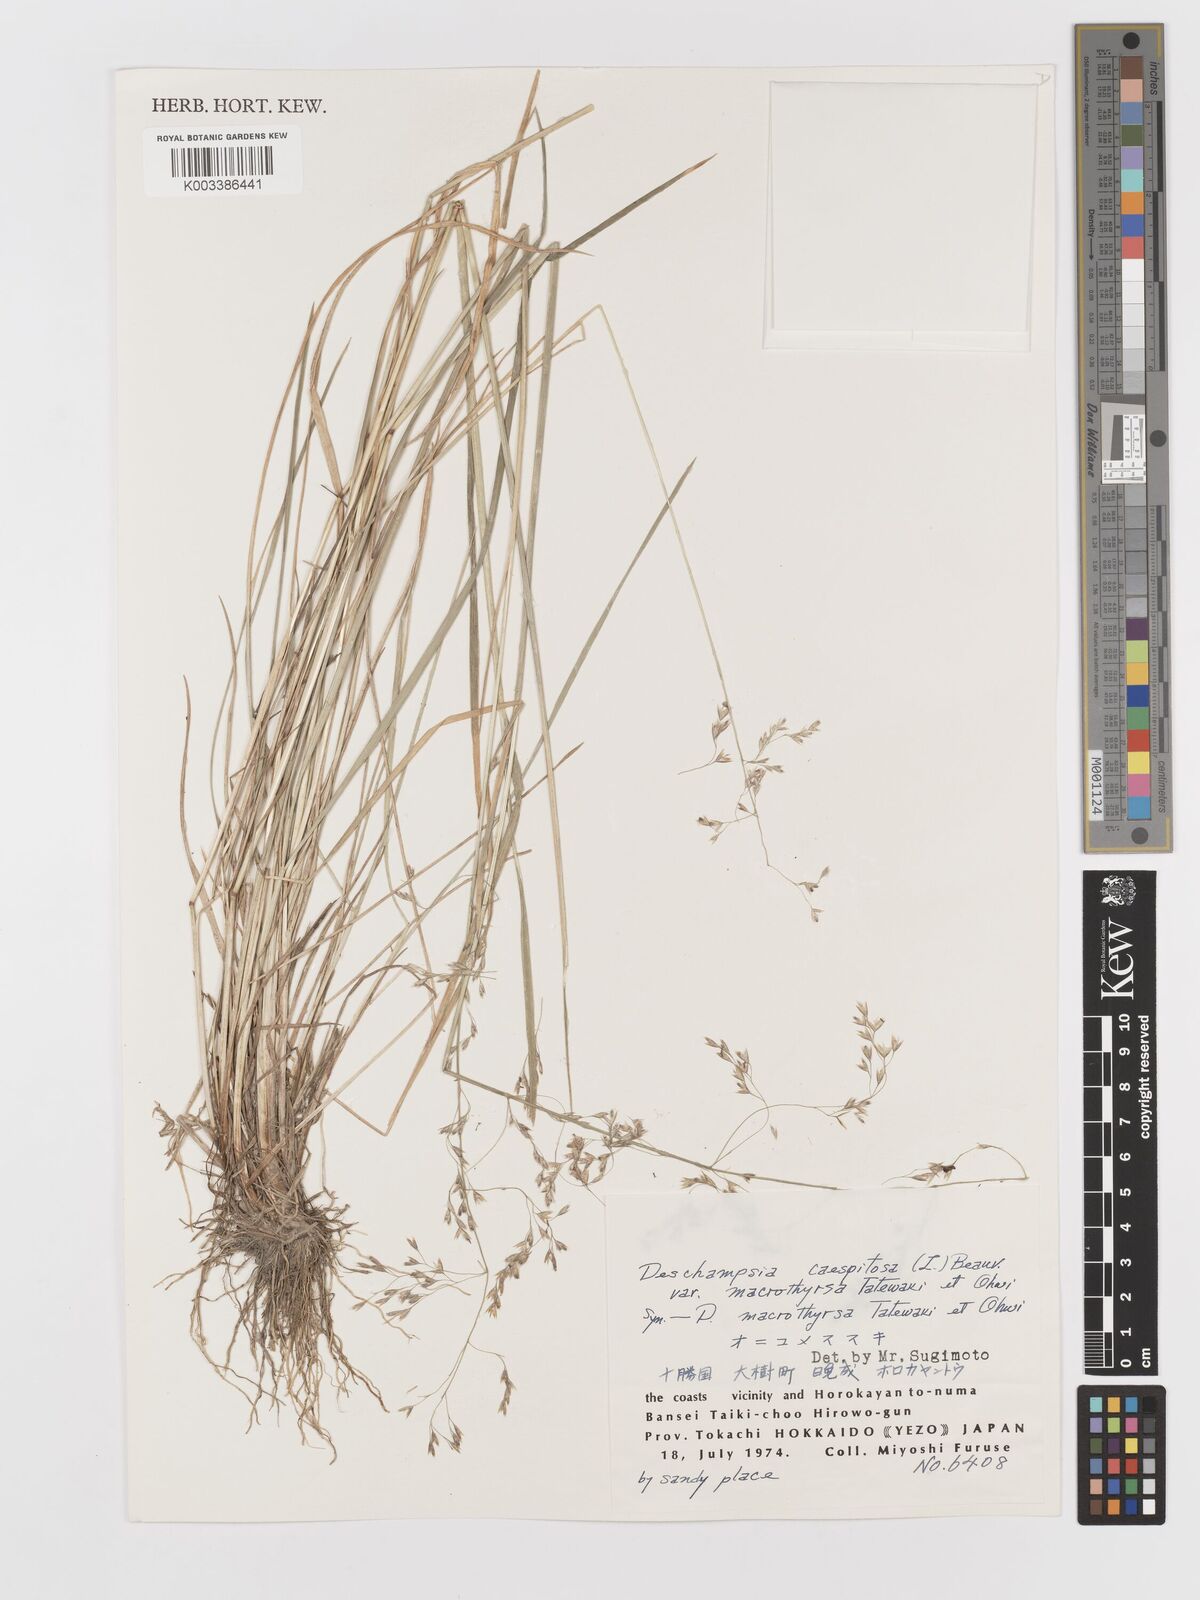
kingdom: Plantae
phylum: Tracheophyta
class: Liliopsida
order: Poales
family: Poaceae
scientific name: Poaceae
